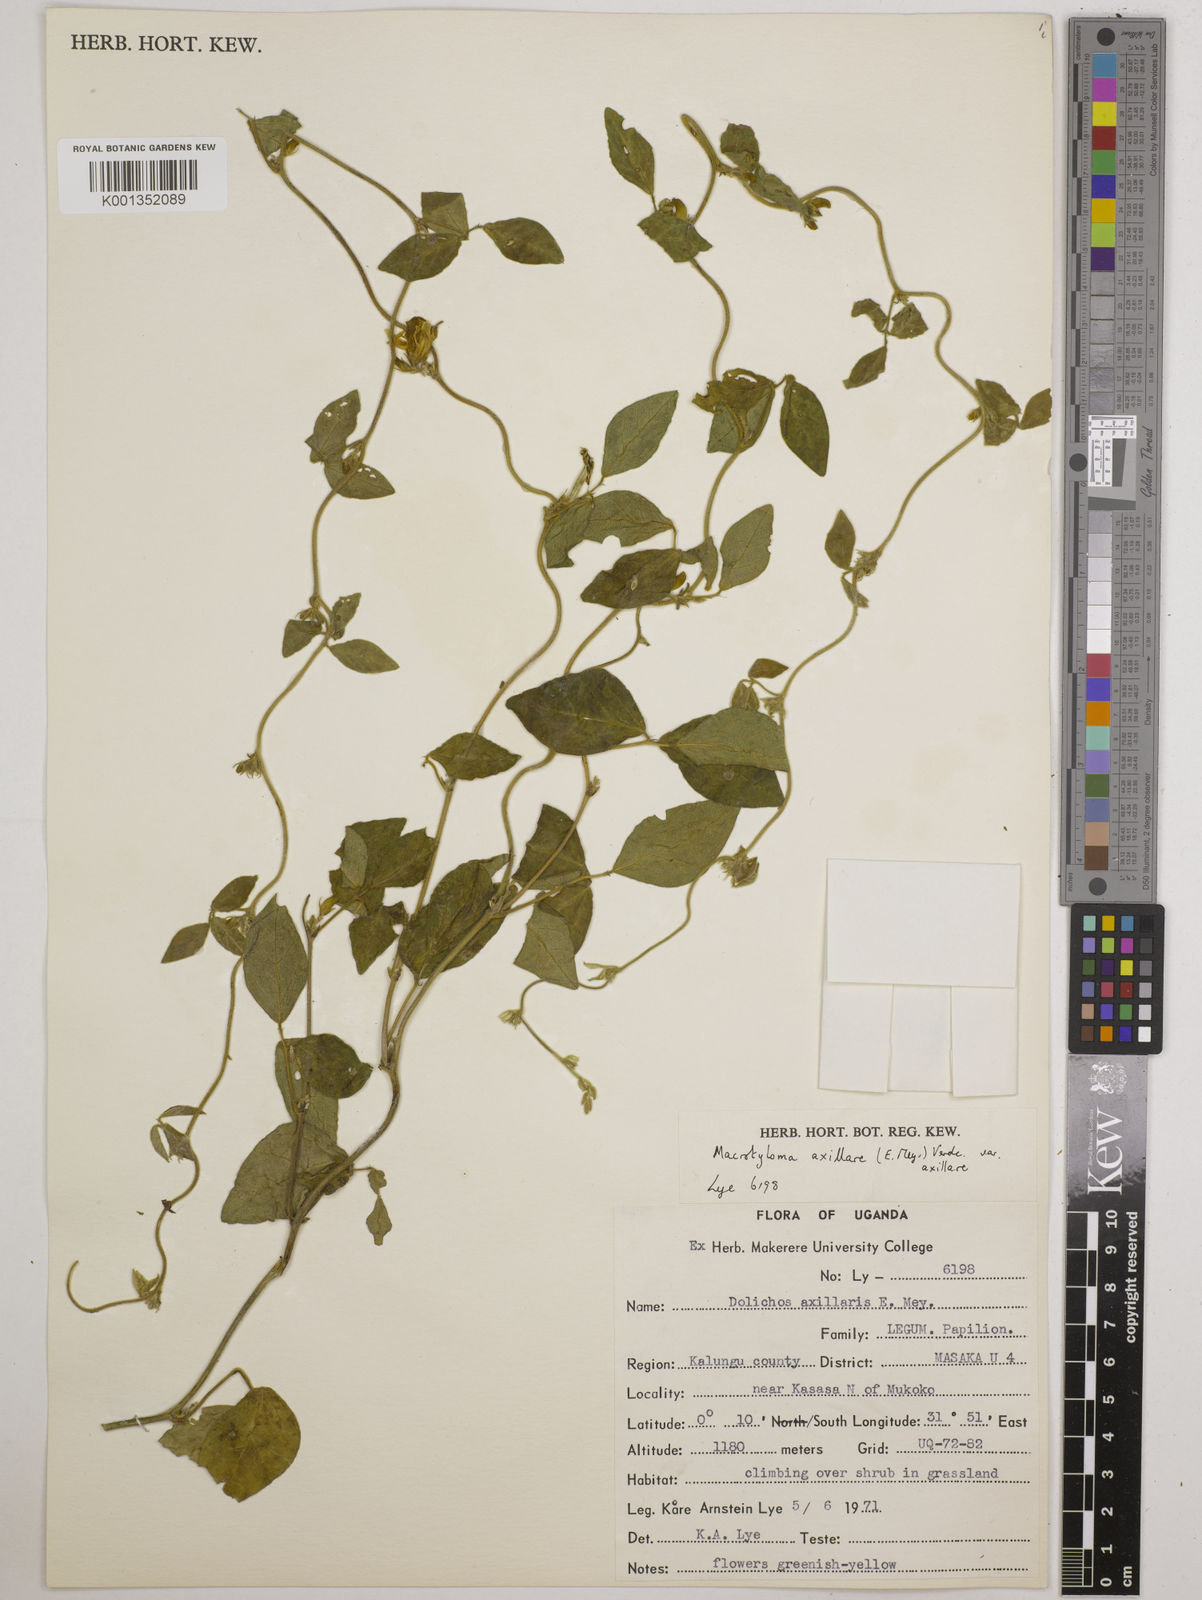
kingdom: Plantae
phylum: Tracheophyta
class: Magnoliopsida
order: Fabales
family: Fabaceae
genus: Macrotyloma
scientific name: Macrotyloma axillare
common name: Perennial horsegram
